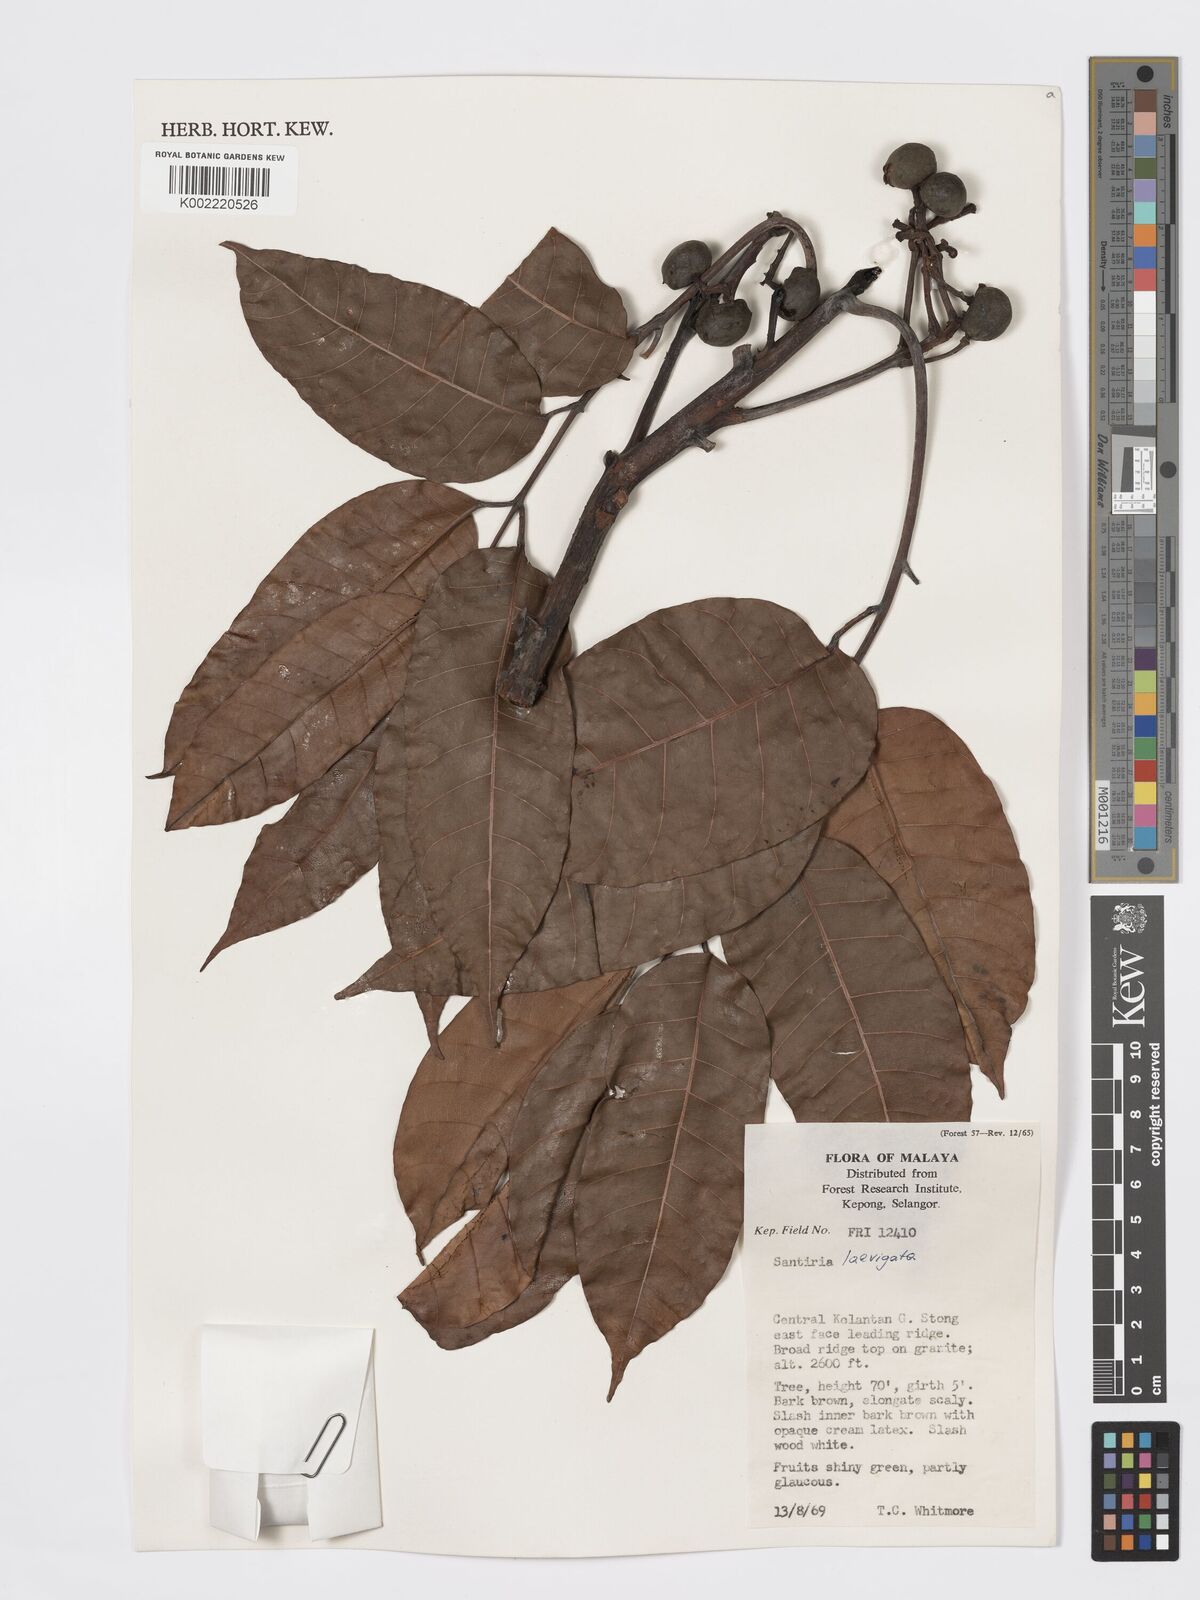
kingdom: Plantae
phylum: Tracheophyta
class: Magnoliopsida
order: Sapindales
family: Burseraceae
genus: Santiria
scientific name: Santiria laevigata
